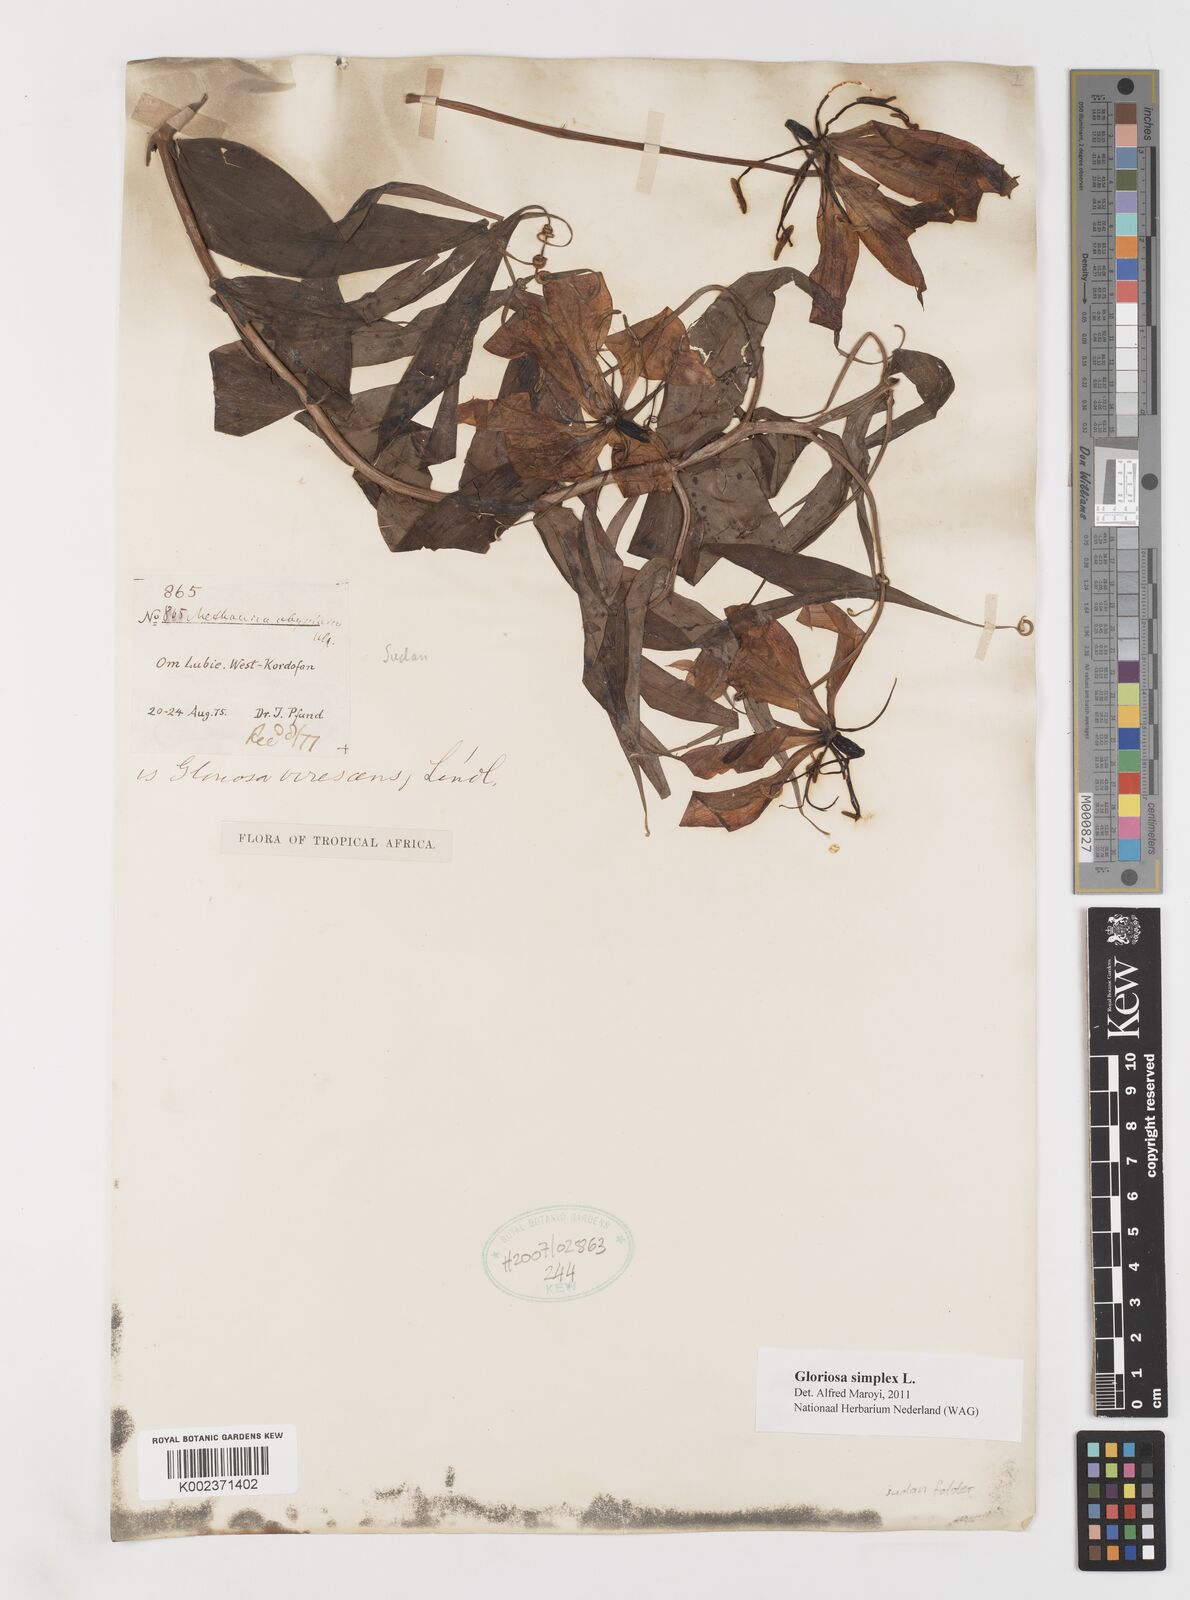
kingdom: Plantae
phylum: Tracheophyta
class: Liliopsida
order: Liliales
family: Colchicaceae
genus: Gloriosa
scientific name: Gloriosa simplex
